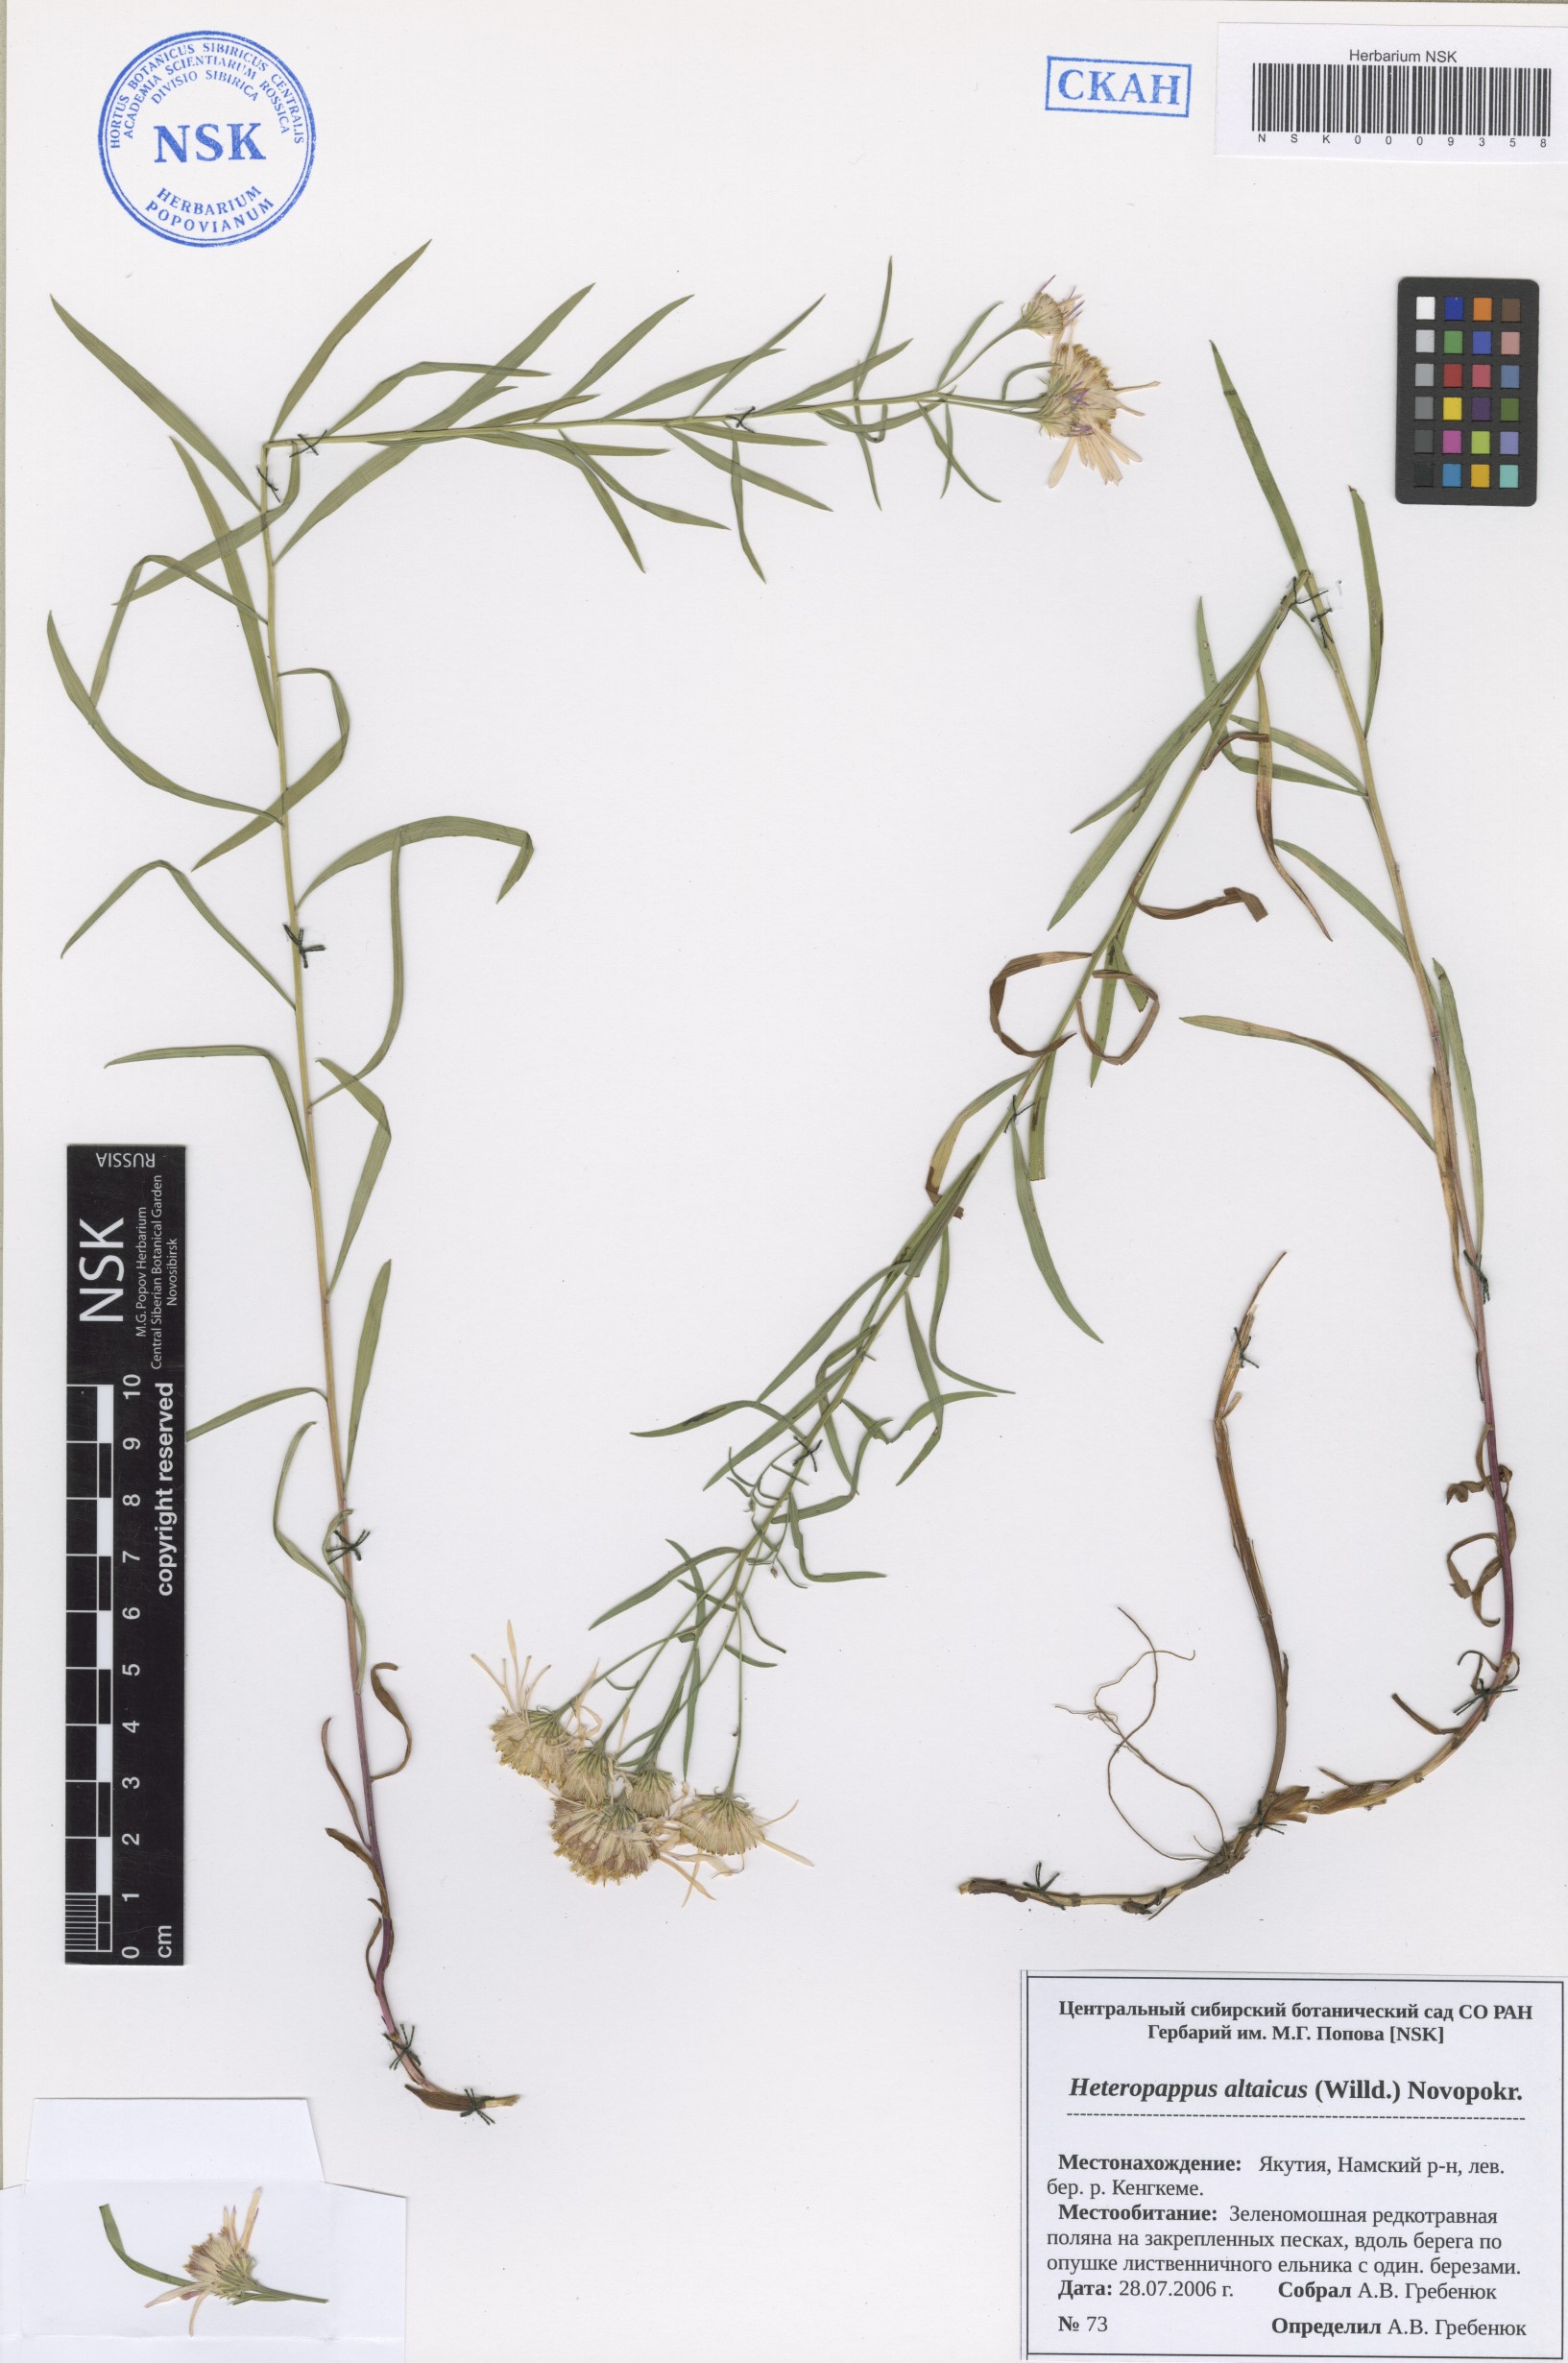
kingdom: Plantae
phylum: Tracheophyta
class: Magnoliopsida
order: Asterales
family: Asteraceae
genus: Heteropappus
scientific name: Heteropappus altaicus
